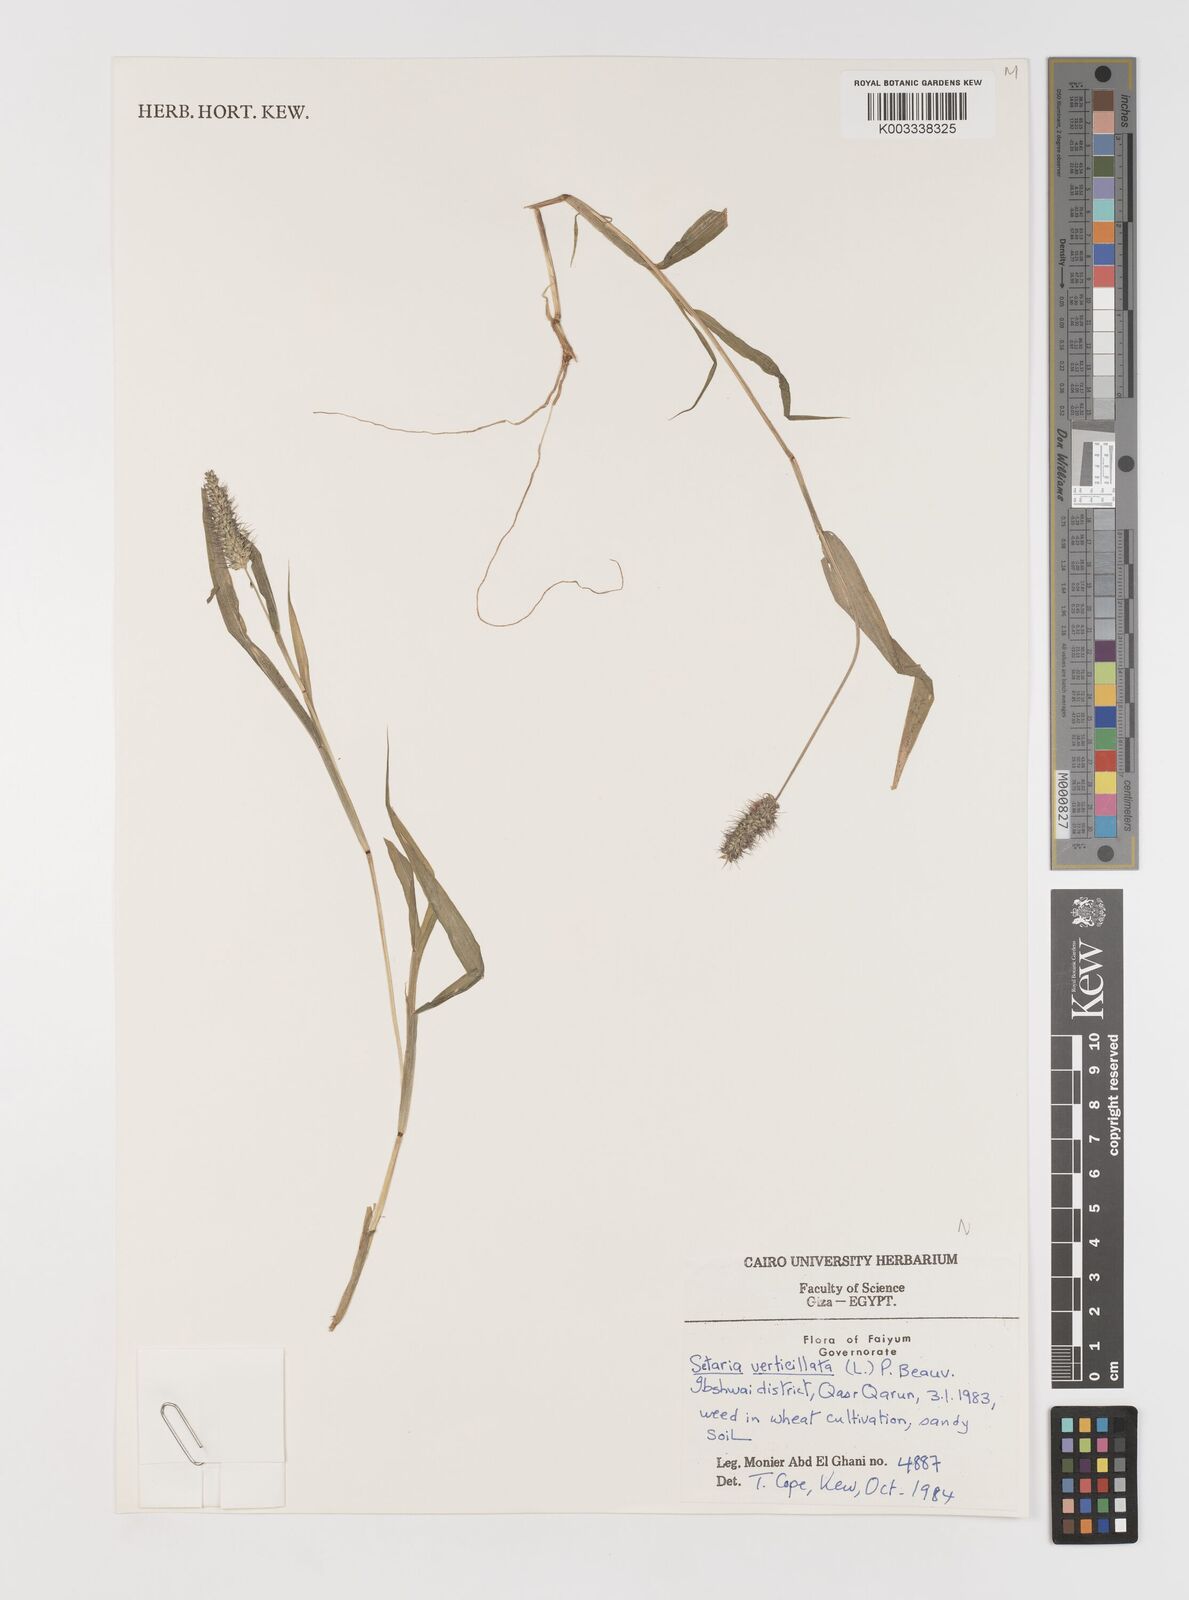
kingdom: Plantae
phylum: Tracheophyta
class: Liliopsida
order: Poales
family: Poaceae
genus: Setaria
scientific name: Setaria verticillata
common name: Hooked bristlegrass
